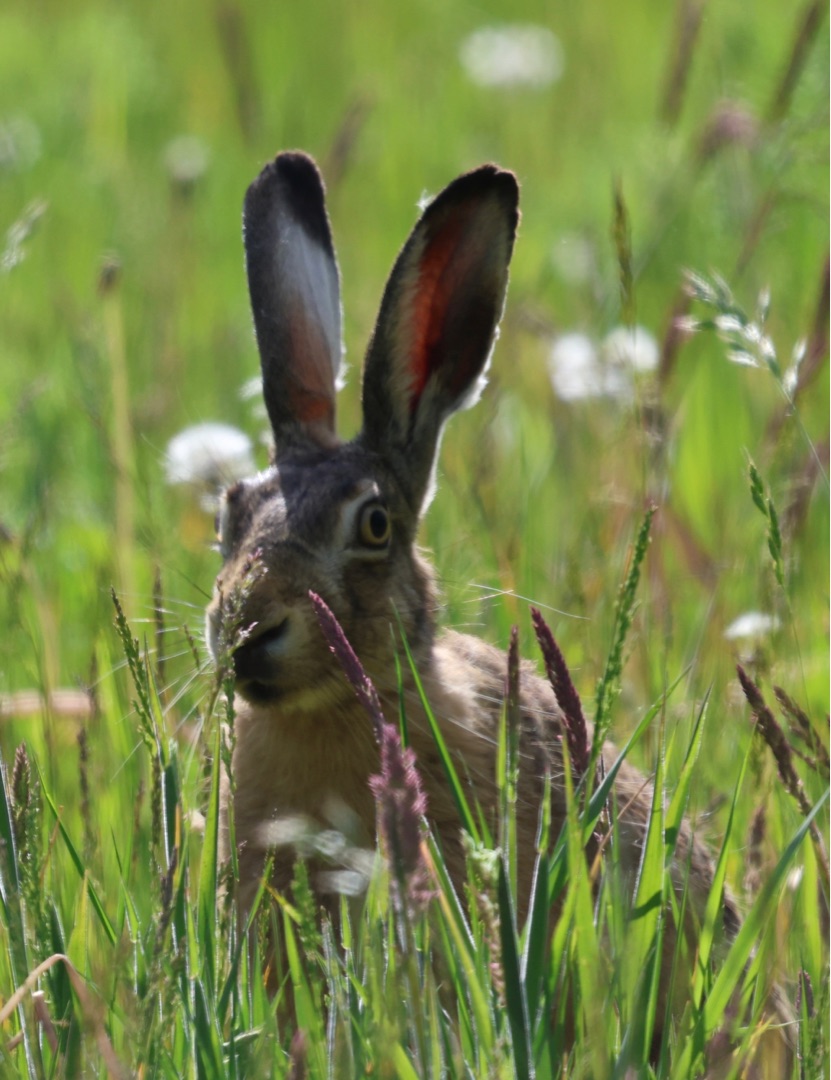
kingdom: Animalia
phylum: Chordata
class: Mammalia
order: Lagomorpha
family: Leporidae
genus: Lepus
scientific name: Lepus europaeus
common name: Hare
